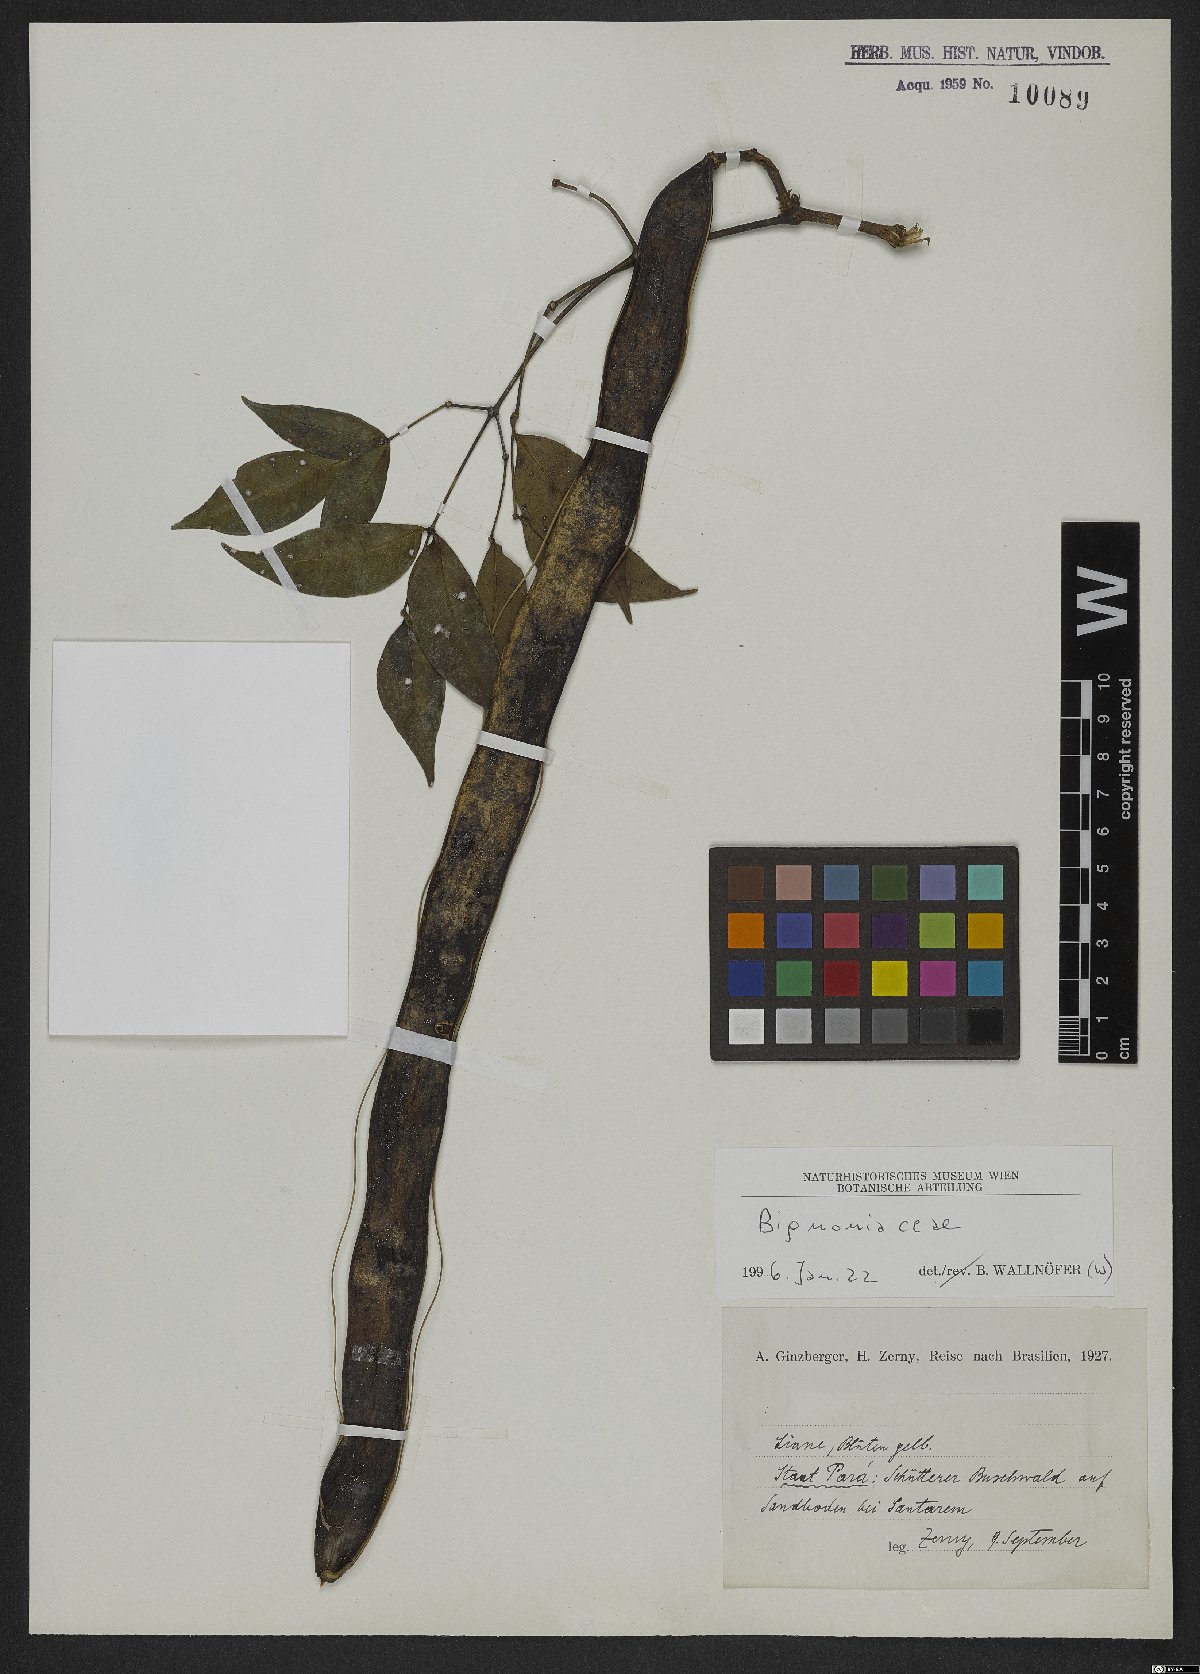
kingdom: Plantae
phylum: Tracheophyta
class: Magnoliopsida
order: Lamiales
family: Bignoniaceae
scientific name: Bignoniaceae
